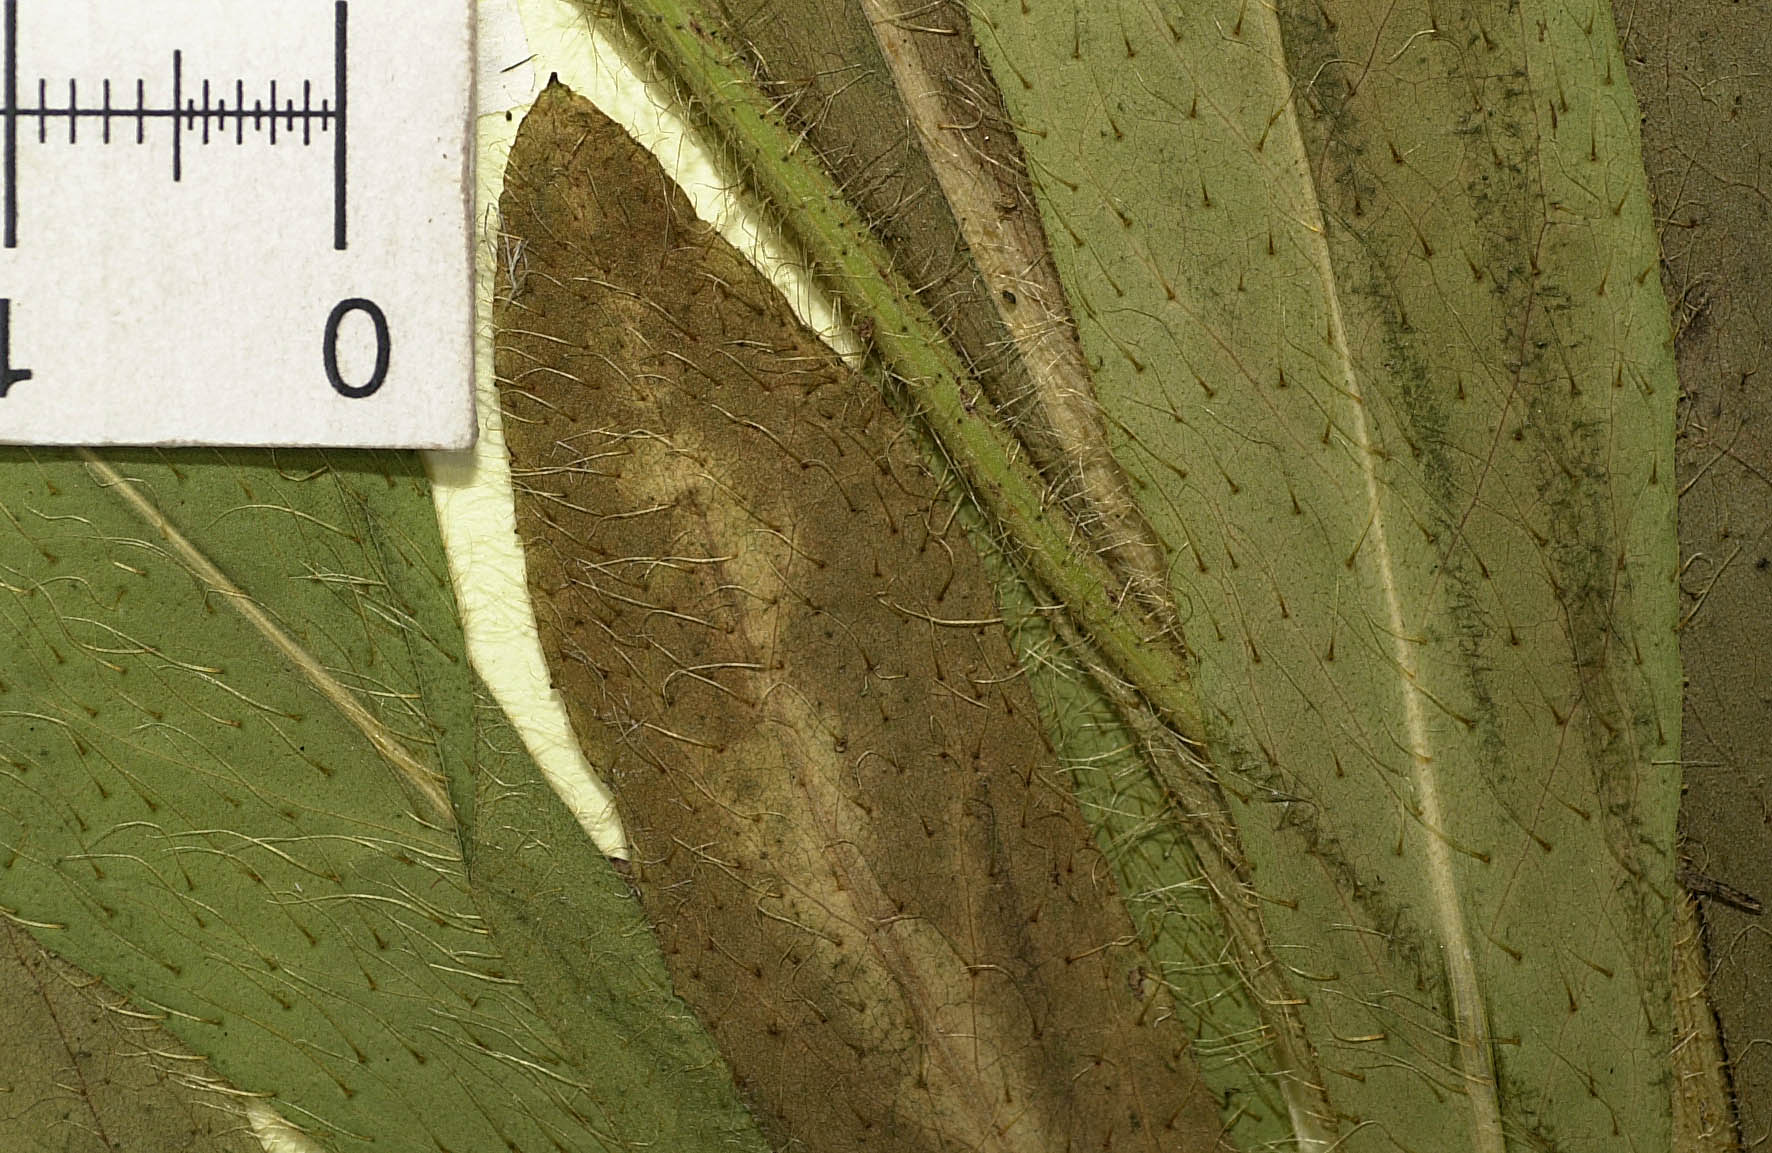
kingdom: Plantae
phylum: Tracheophyta
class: Magnoliopsida
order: Asterales
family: Asteraceae
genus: Pilosella
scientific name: Pilosella pachycymigera
